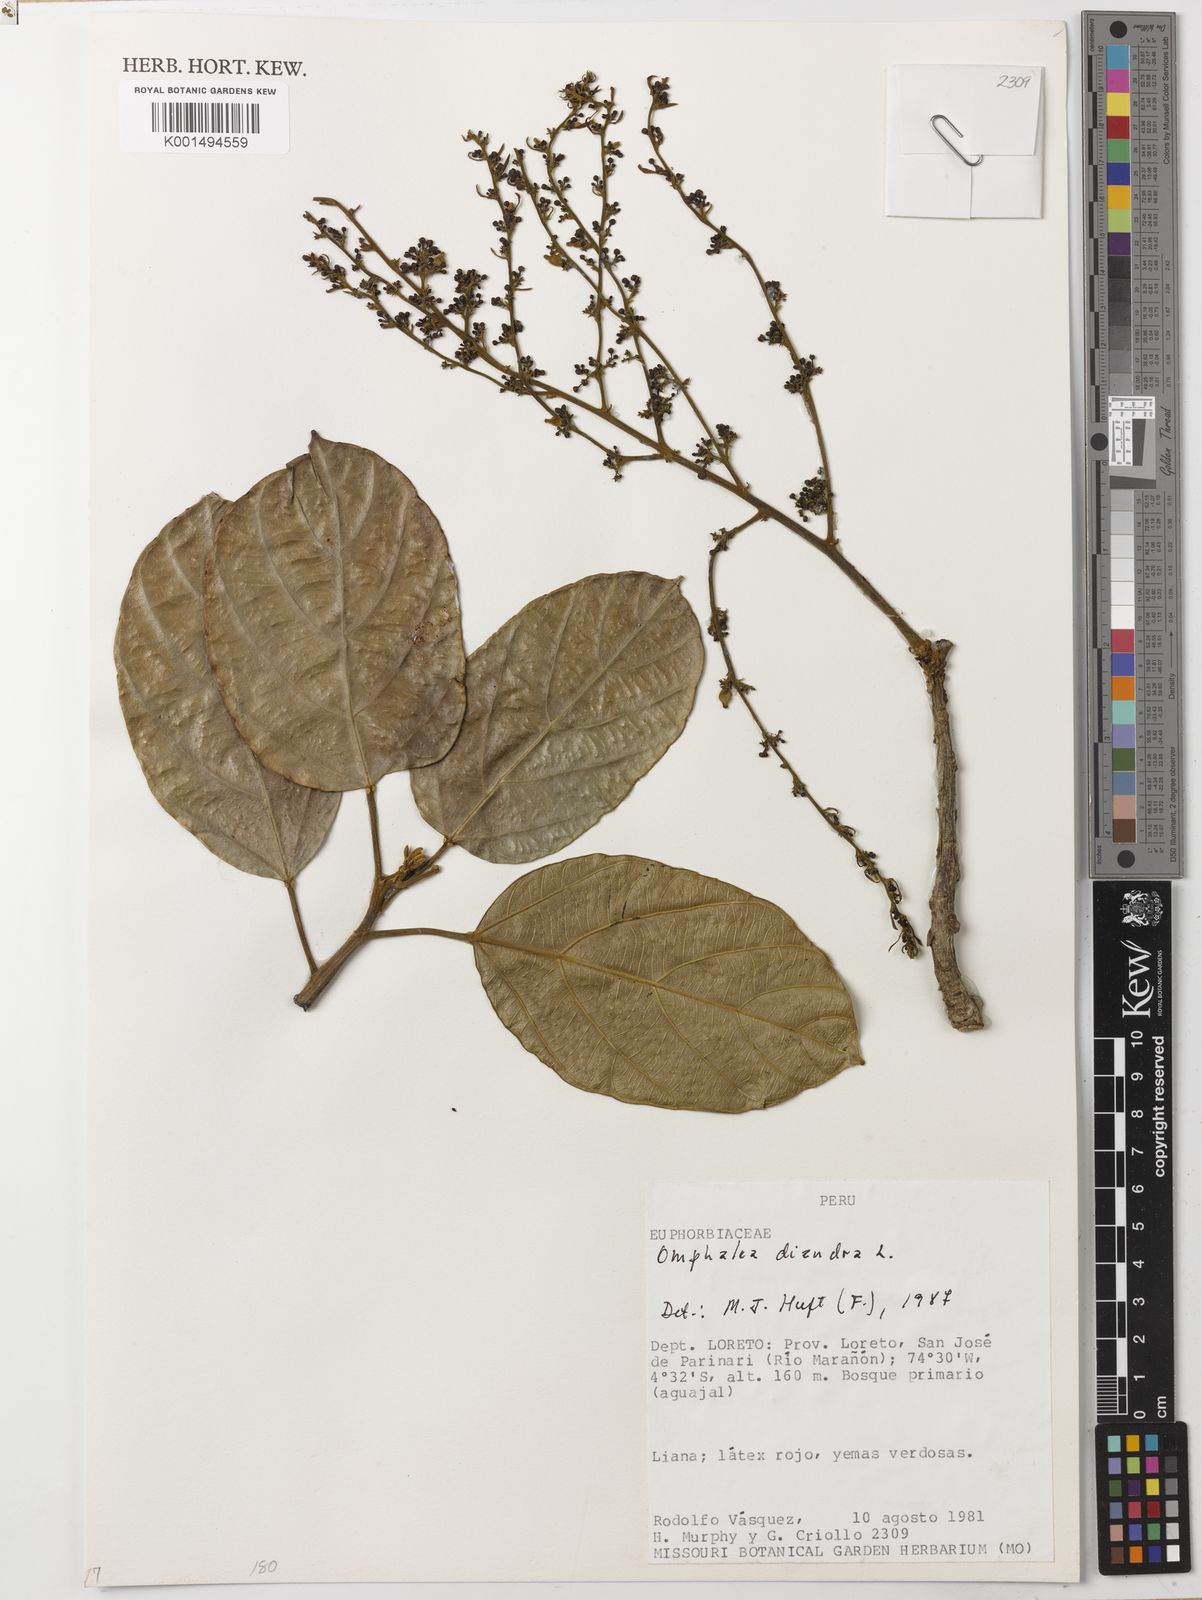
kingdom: Plantae
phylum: Tracheophyta
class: Magnoliopsida
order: Malpighiales
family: Euphorbiaceae
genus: Omphalea
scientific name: Omphalea diandra
